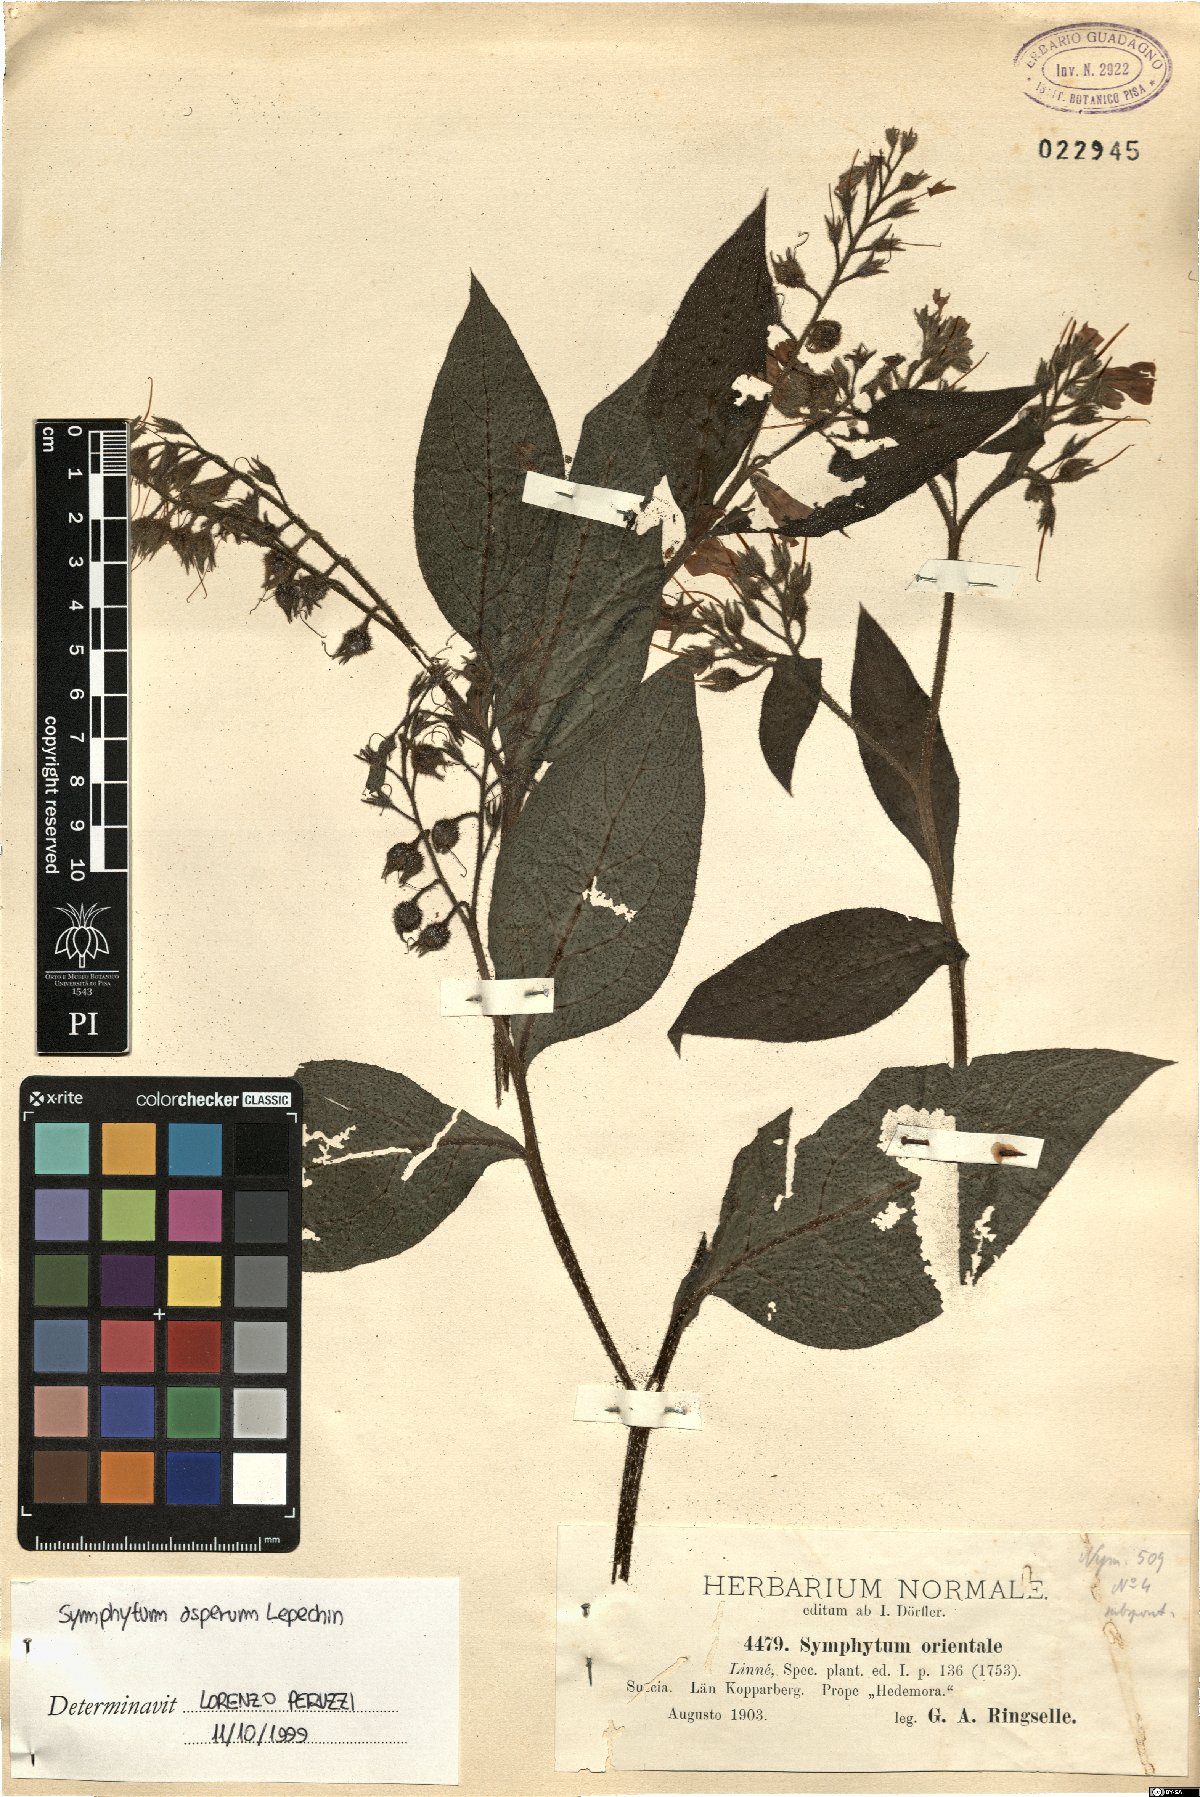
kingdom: Plantae
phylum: Tracheophyta
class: Magnoliopsida
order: Boraginales
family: Boraginaceae
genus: Symphytum
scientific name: Symphytum asperum
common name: Prickly comfrey
